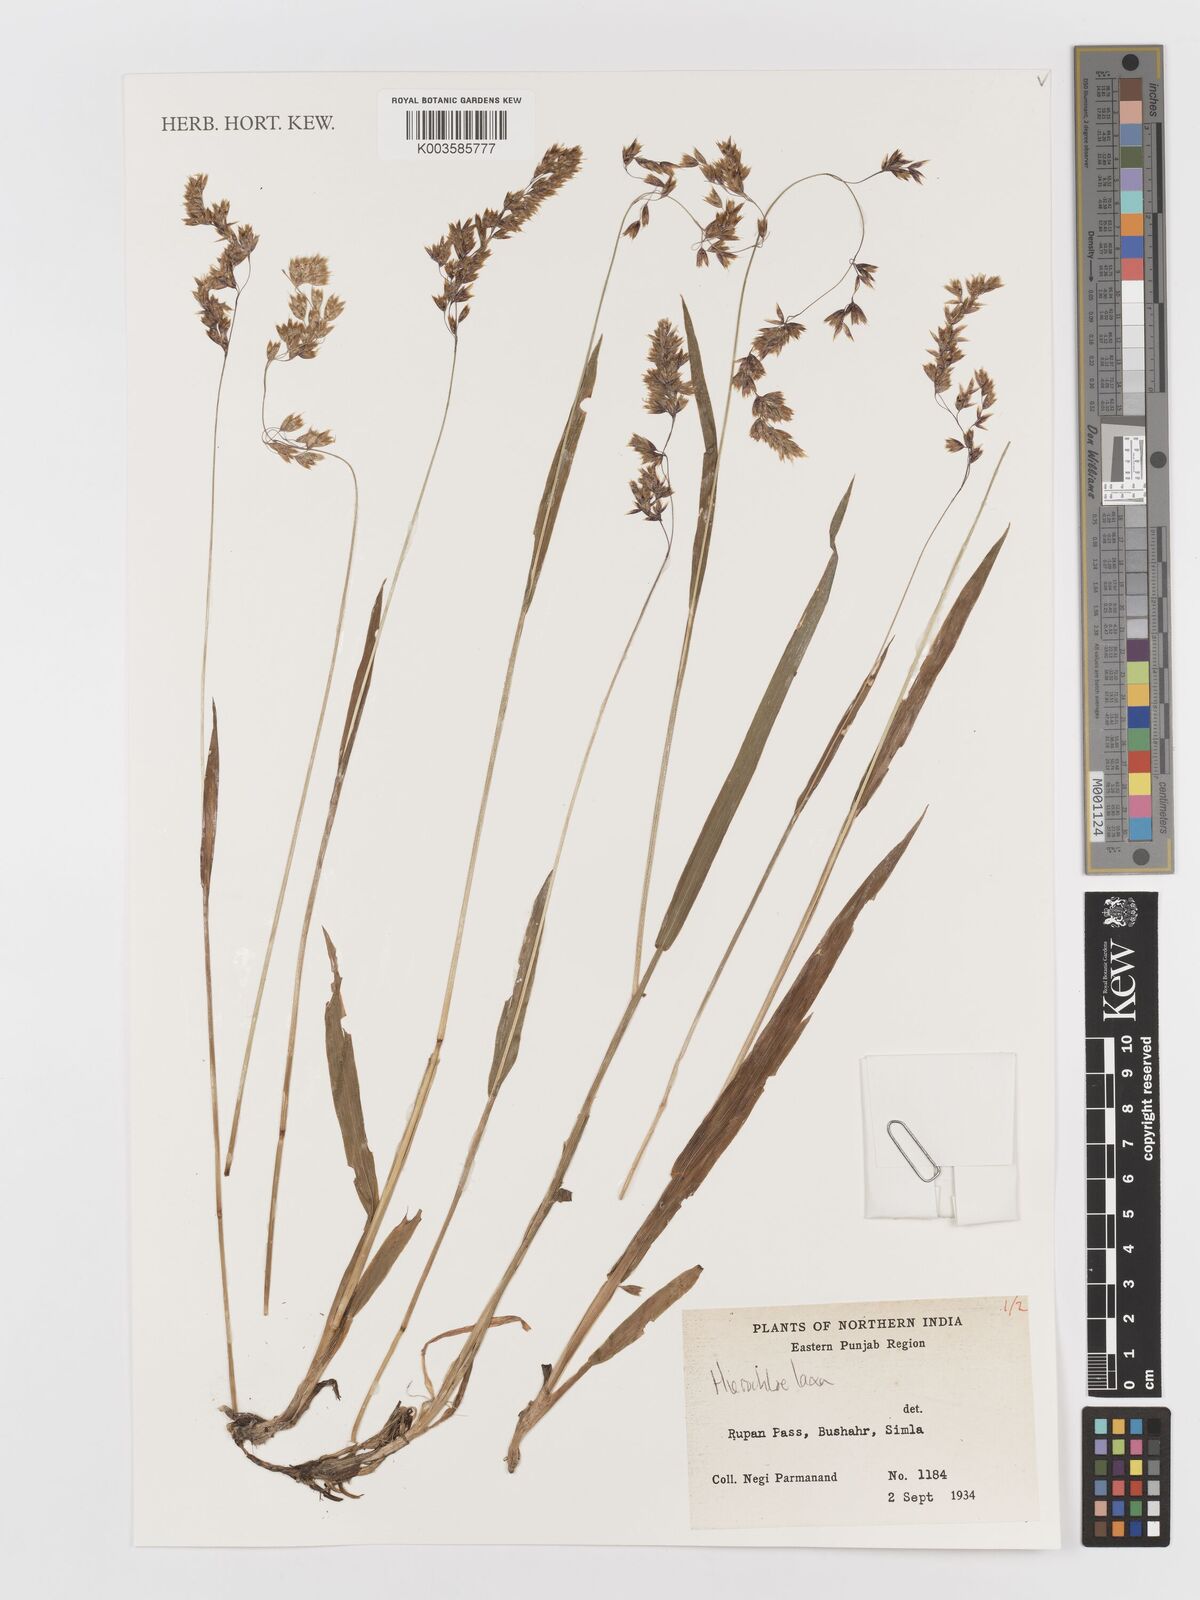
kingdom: Plantae
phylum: Tracheophyta
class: Liliopsida
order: Poales
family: Poaceae
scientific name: Poaceae
